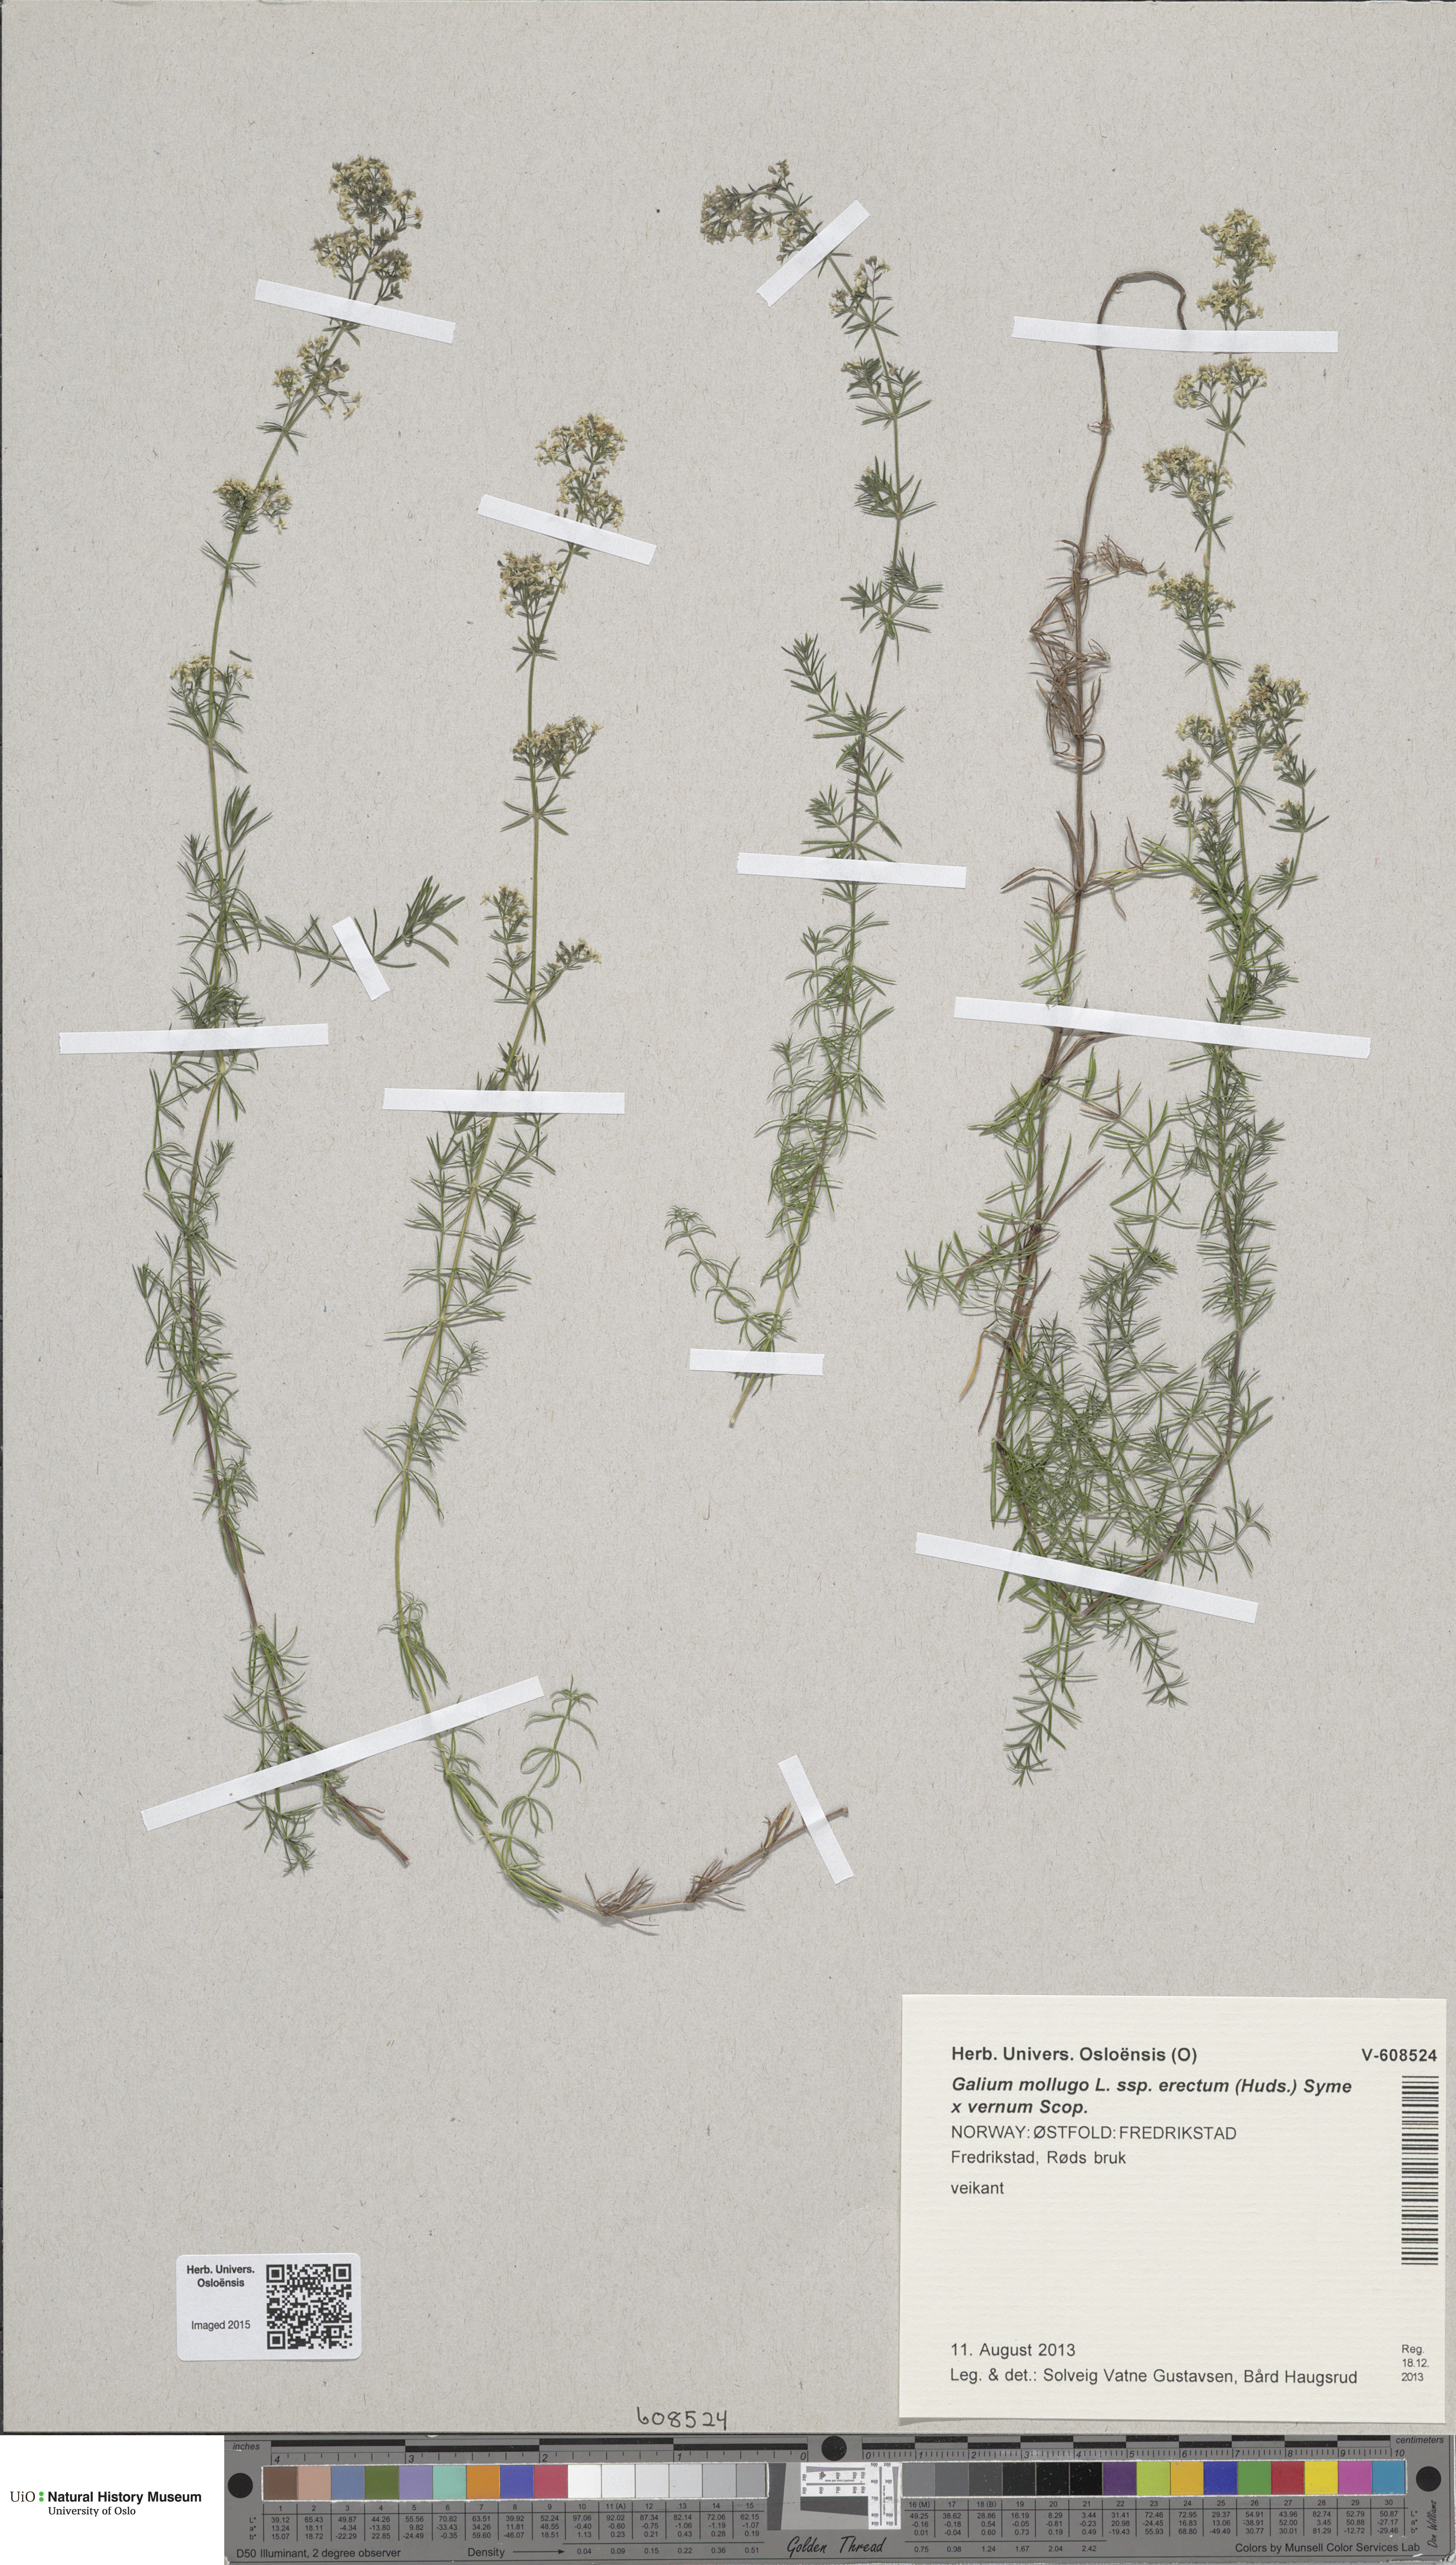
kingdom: Plantae
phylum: Tracheophyta
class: Magnoliopsida
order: Gentianales
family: Rubiaceae
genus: Galium
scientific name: Galium
